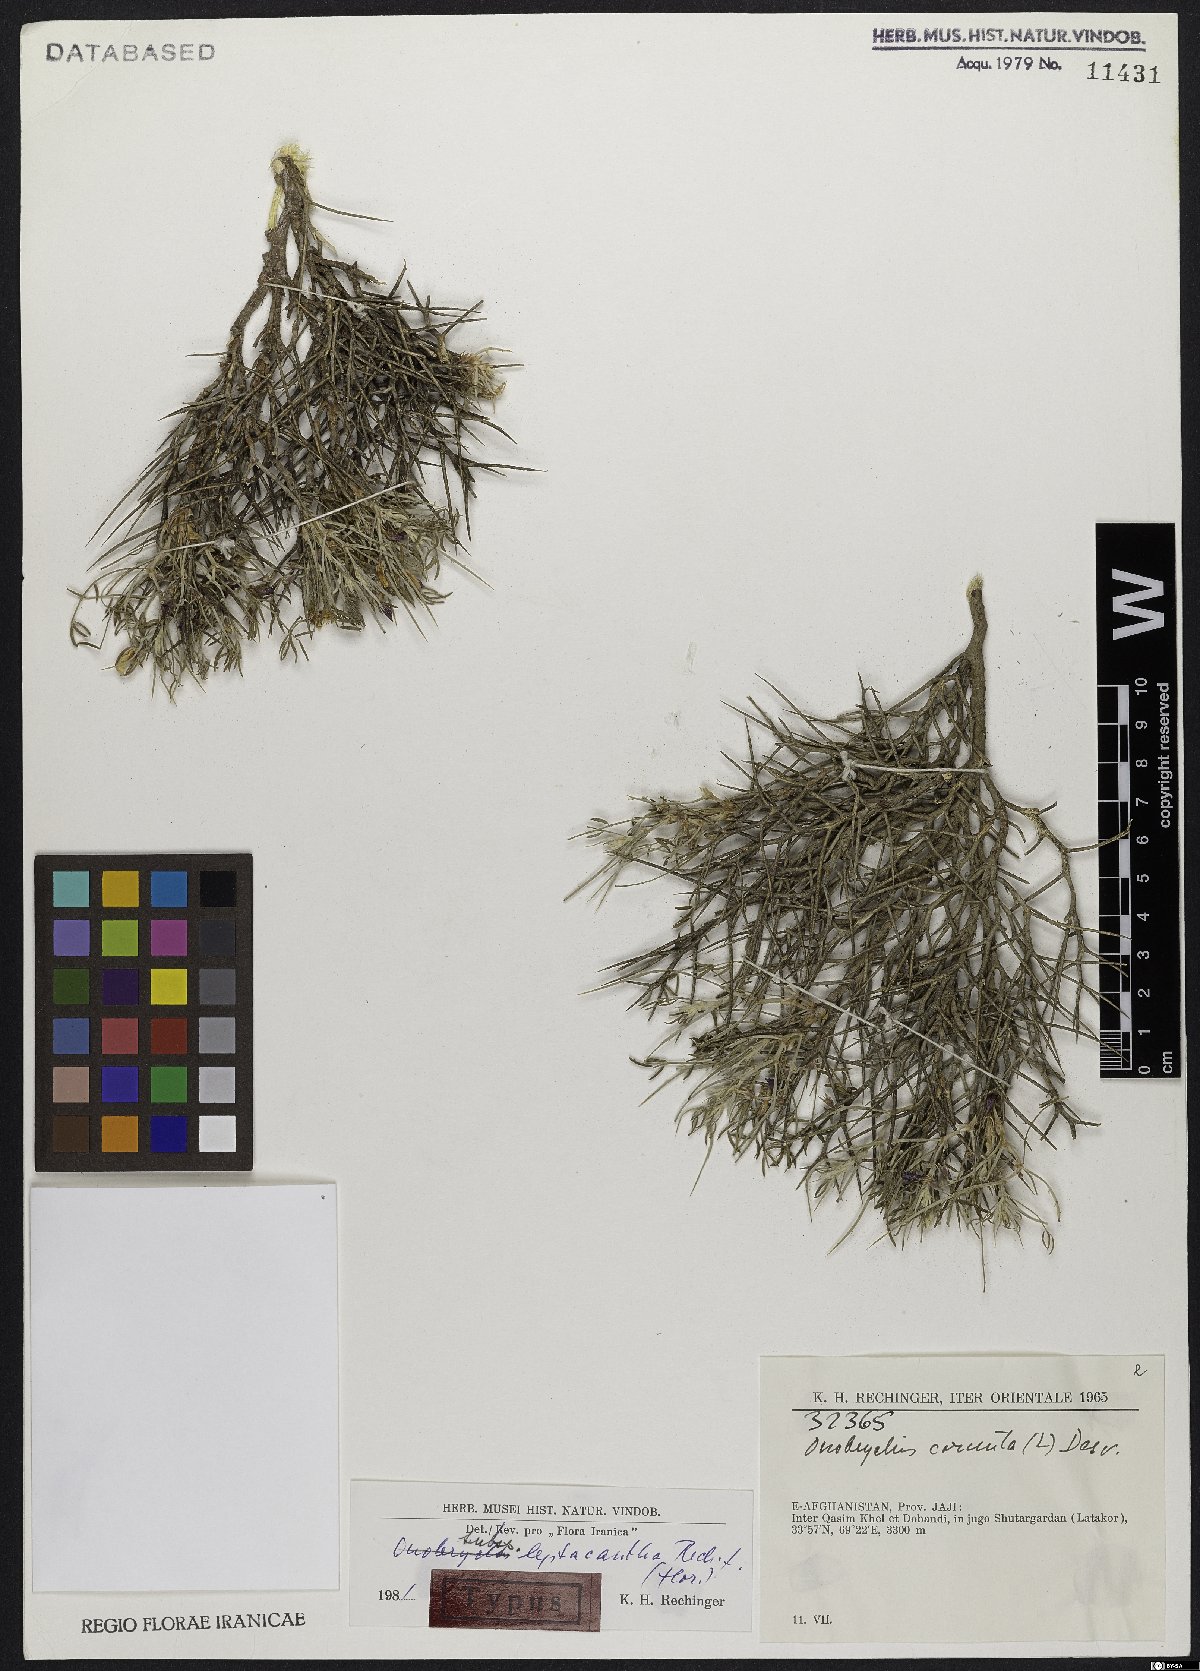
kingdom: Plantae
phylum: Tracheophyta
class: Magnoliopsida
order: Fabales
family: Fabaceae
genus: Onobrychis
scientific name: Onobrychis cornuta
